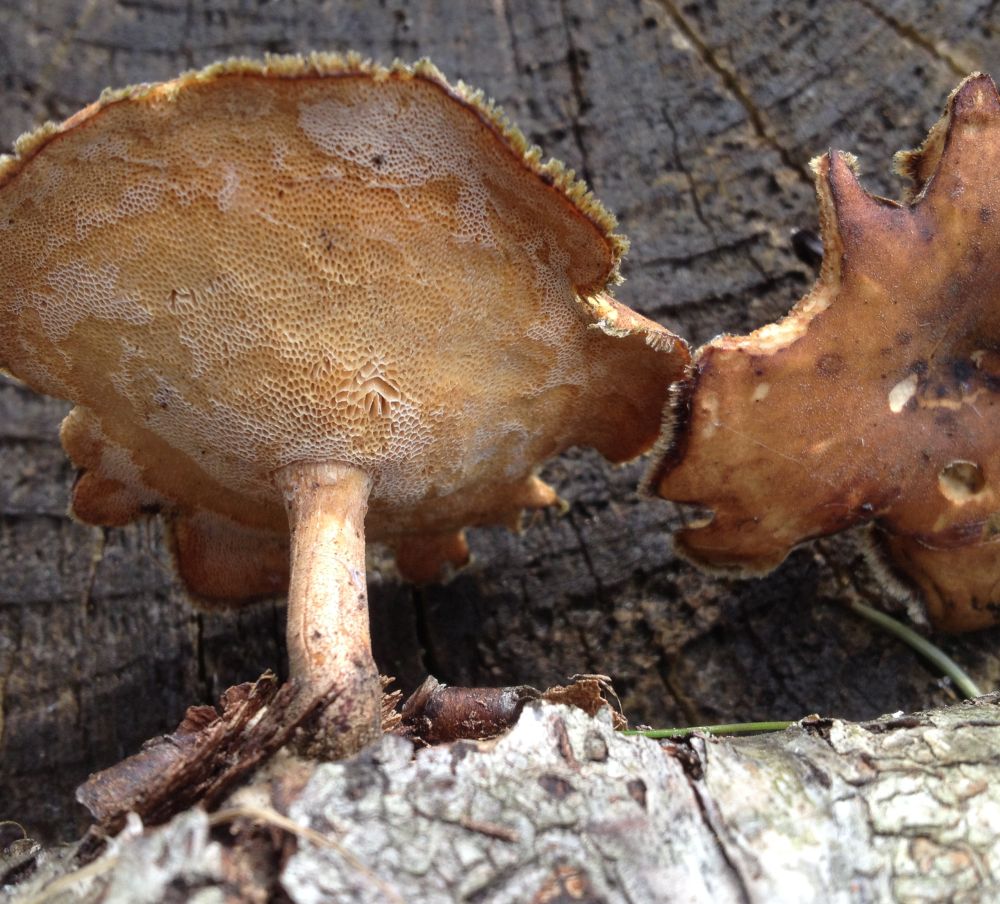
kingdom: Fungi
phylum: Basidiomycota
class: Agaricomycetes
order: Polyporales
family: Polyporaceae
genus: Lentinus
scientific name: Lentinus brumalis
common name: vinter-stilkporesvamp
